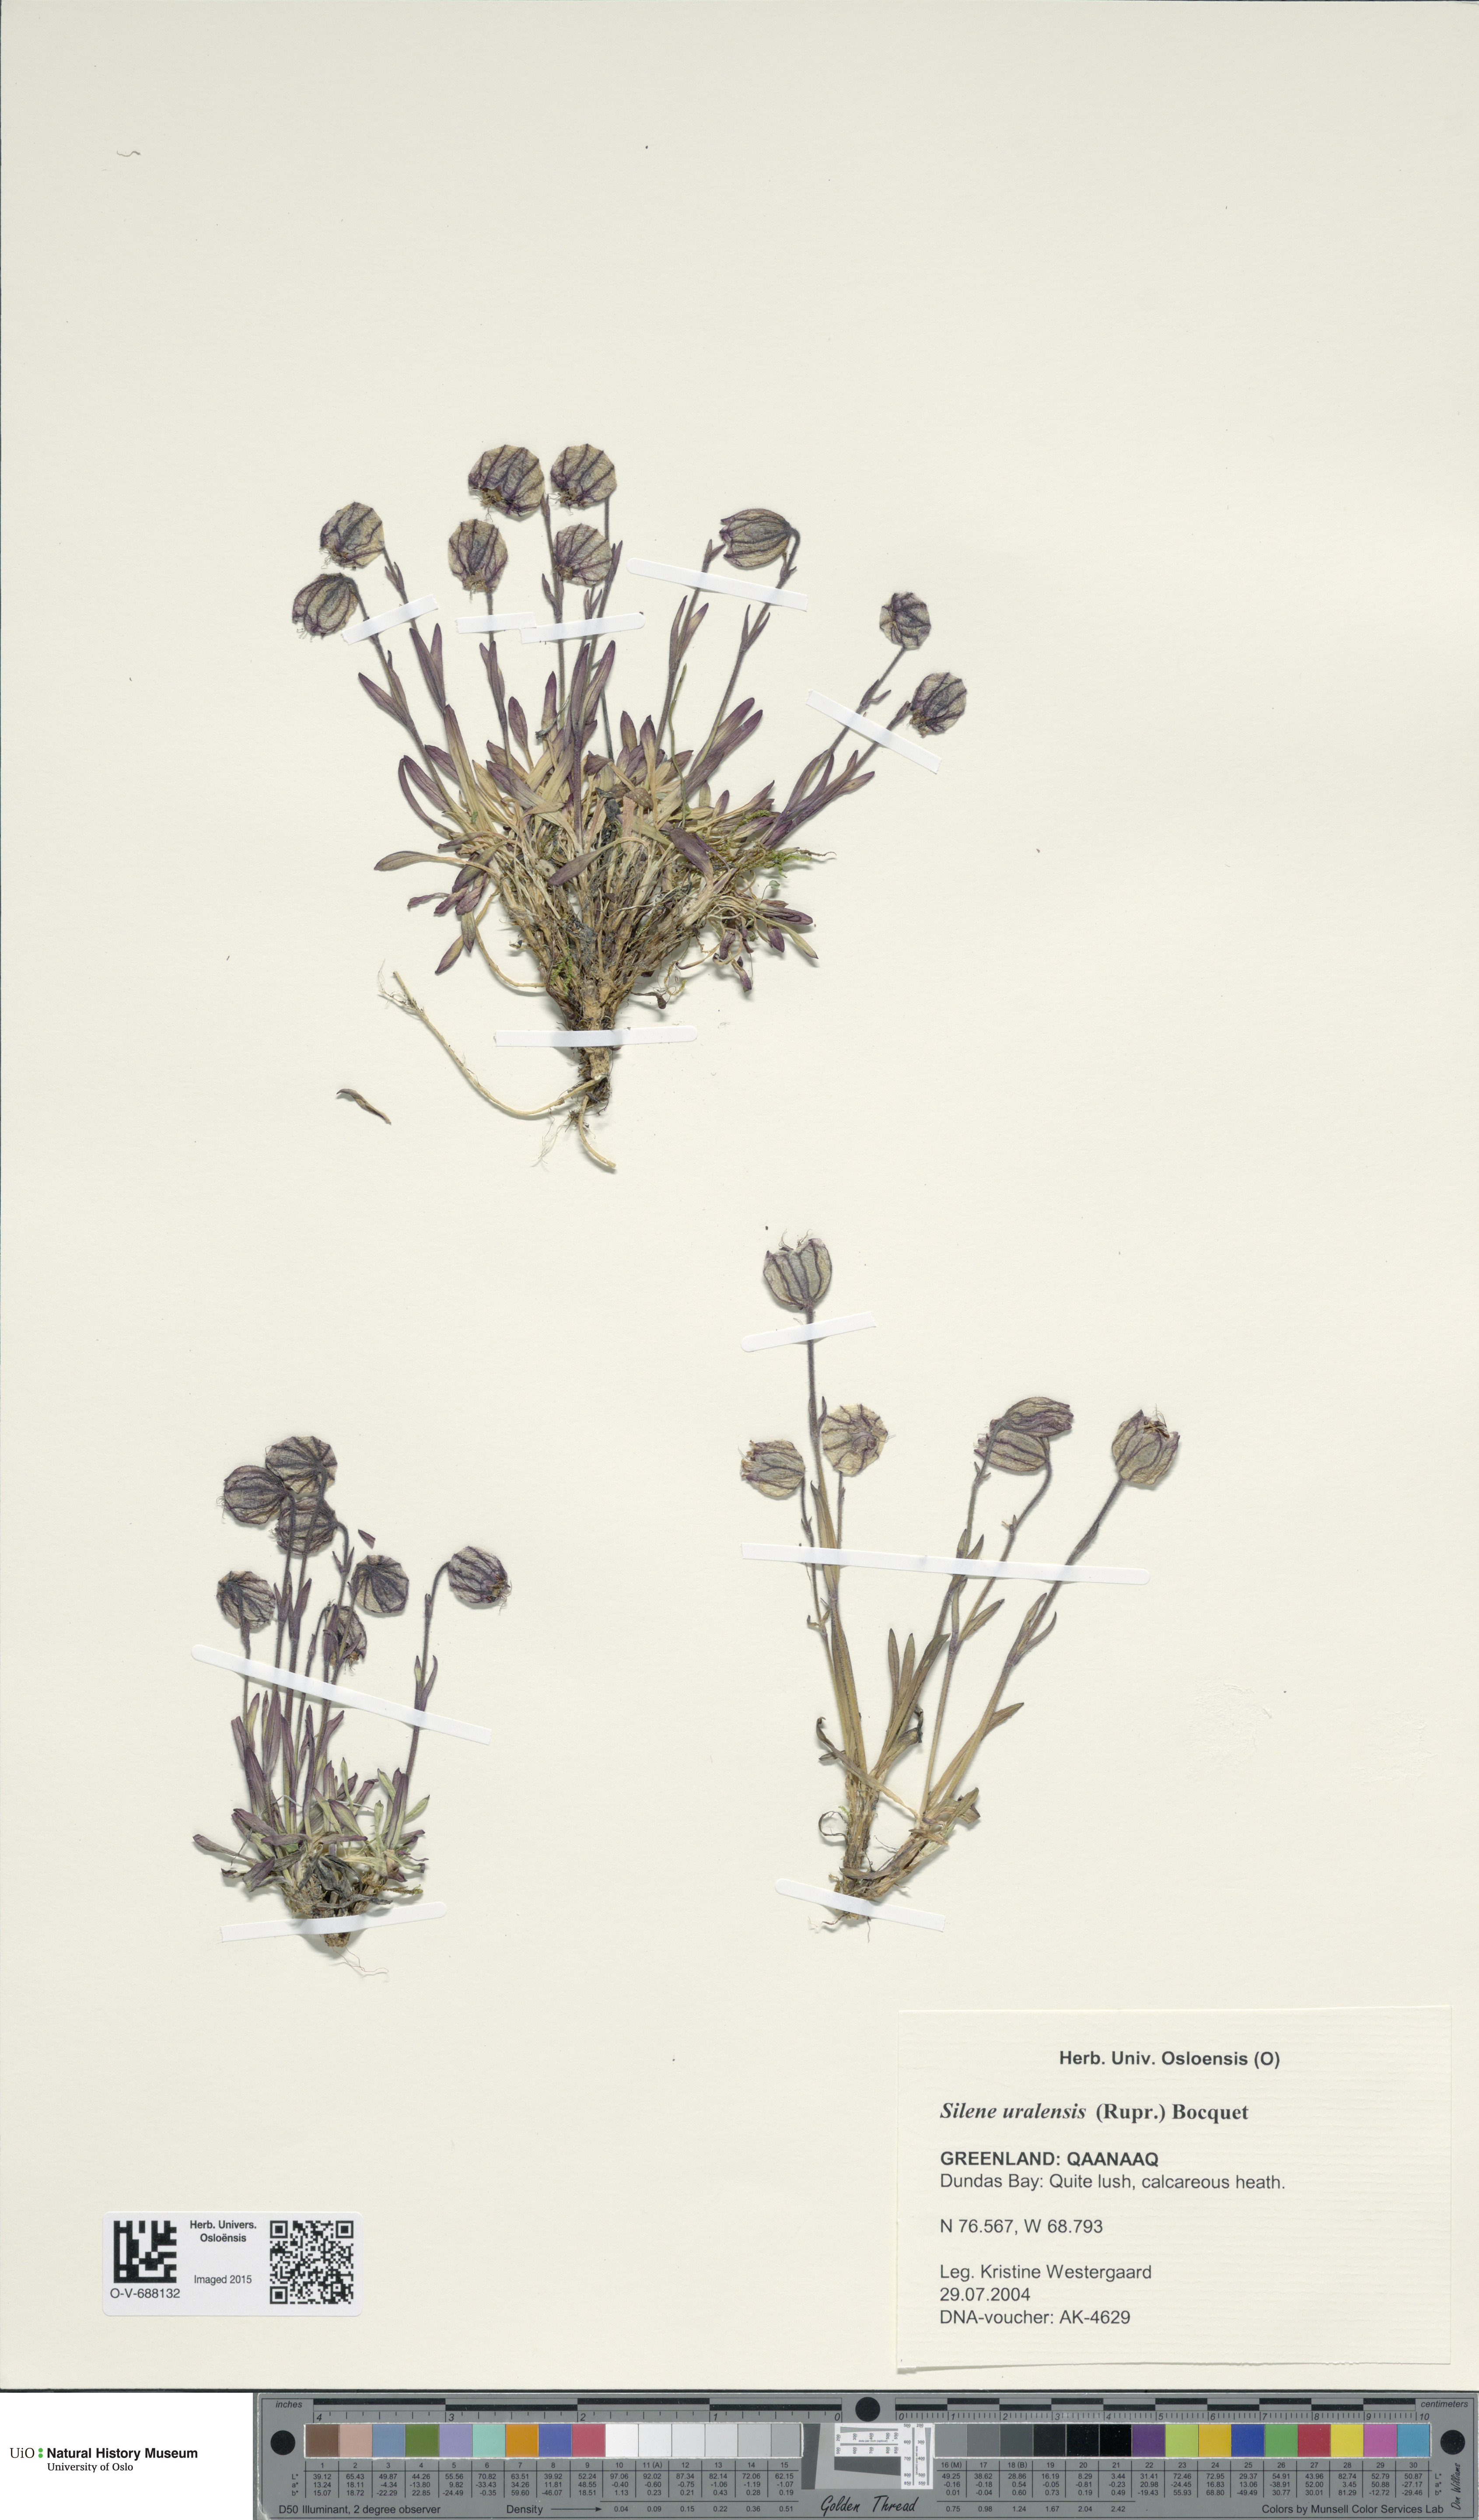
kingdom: Plantae
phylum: Tracheophyta
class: Magnoliopsida
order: Caryophyllales
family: Caryophyllaceae
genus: Silene
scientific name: Silene uralensis
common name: Nodding campion
